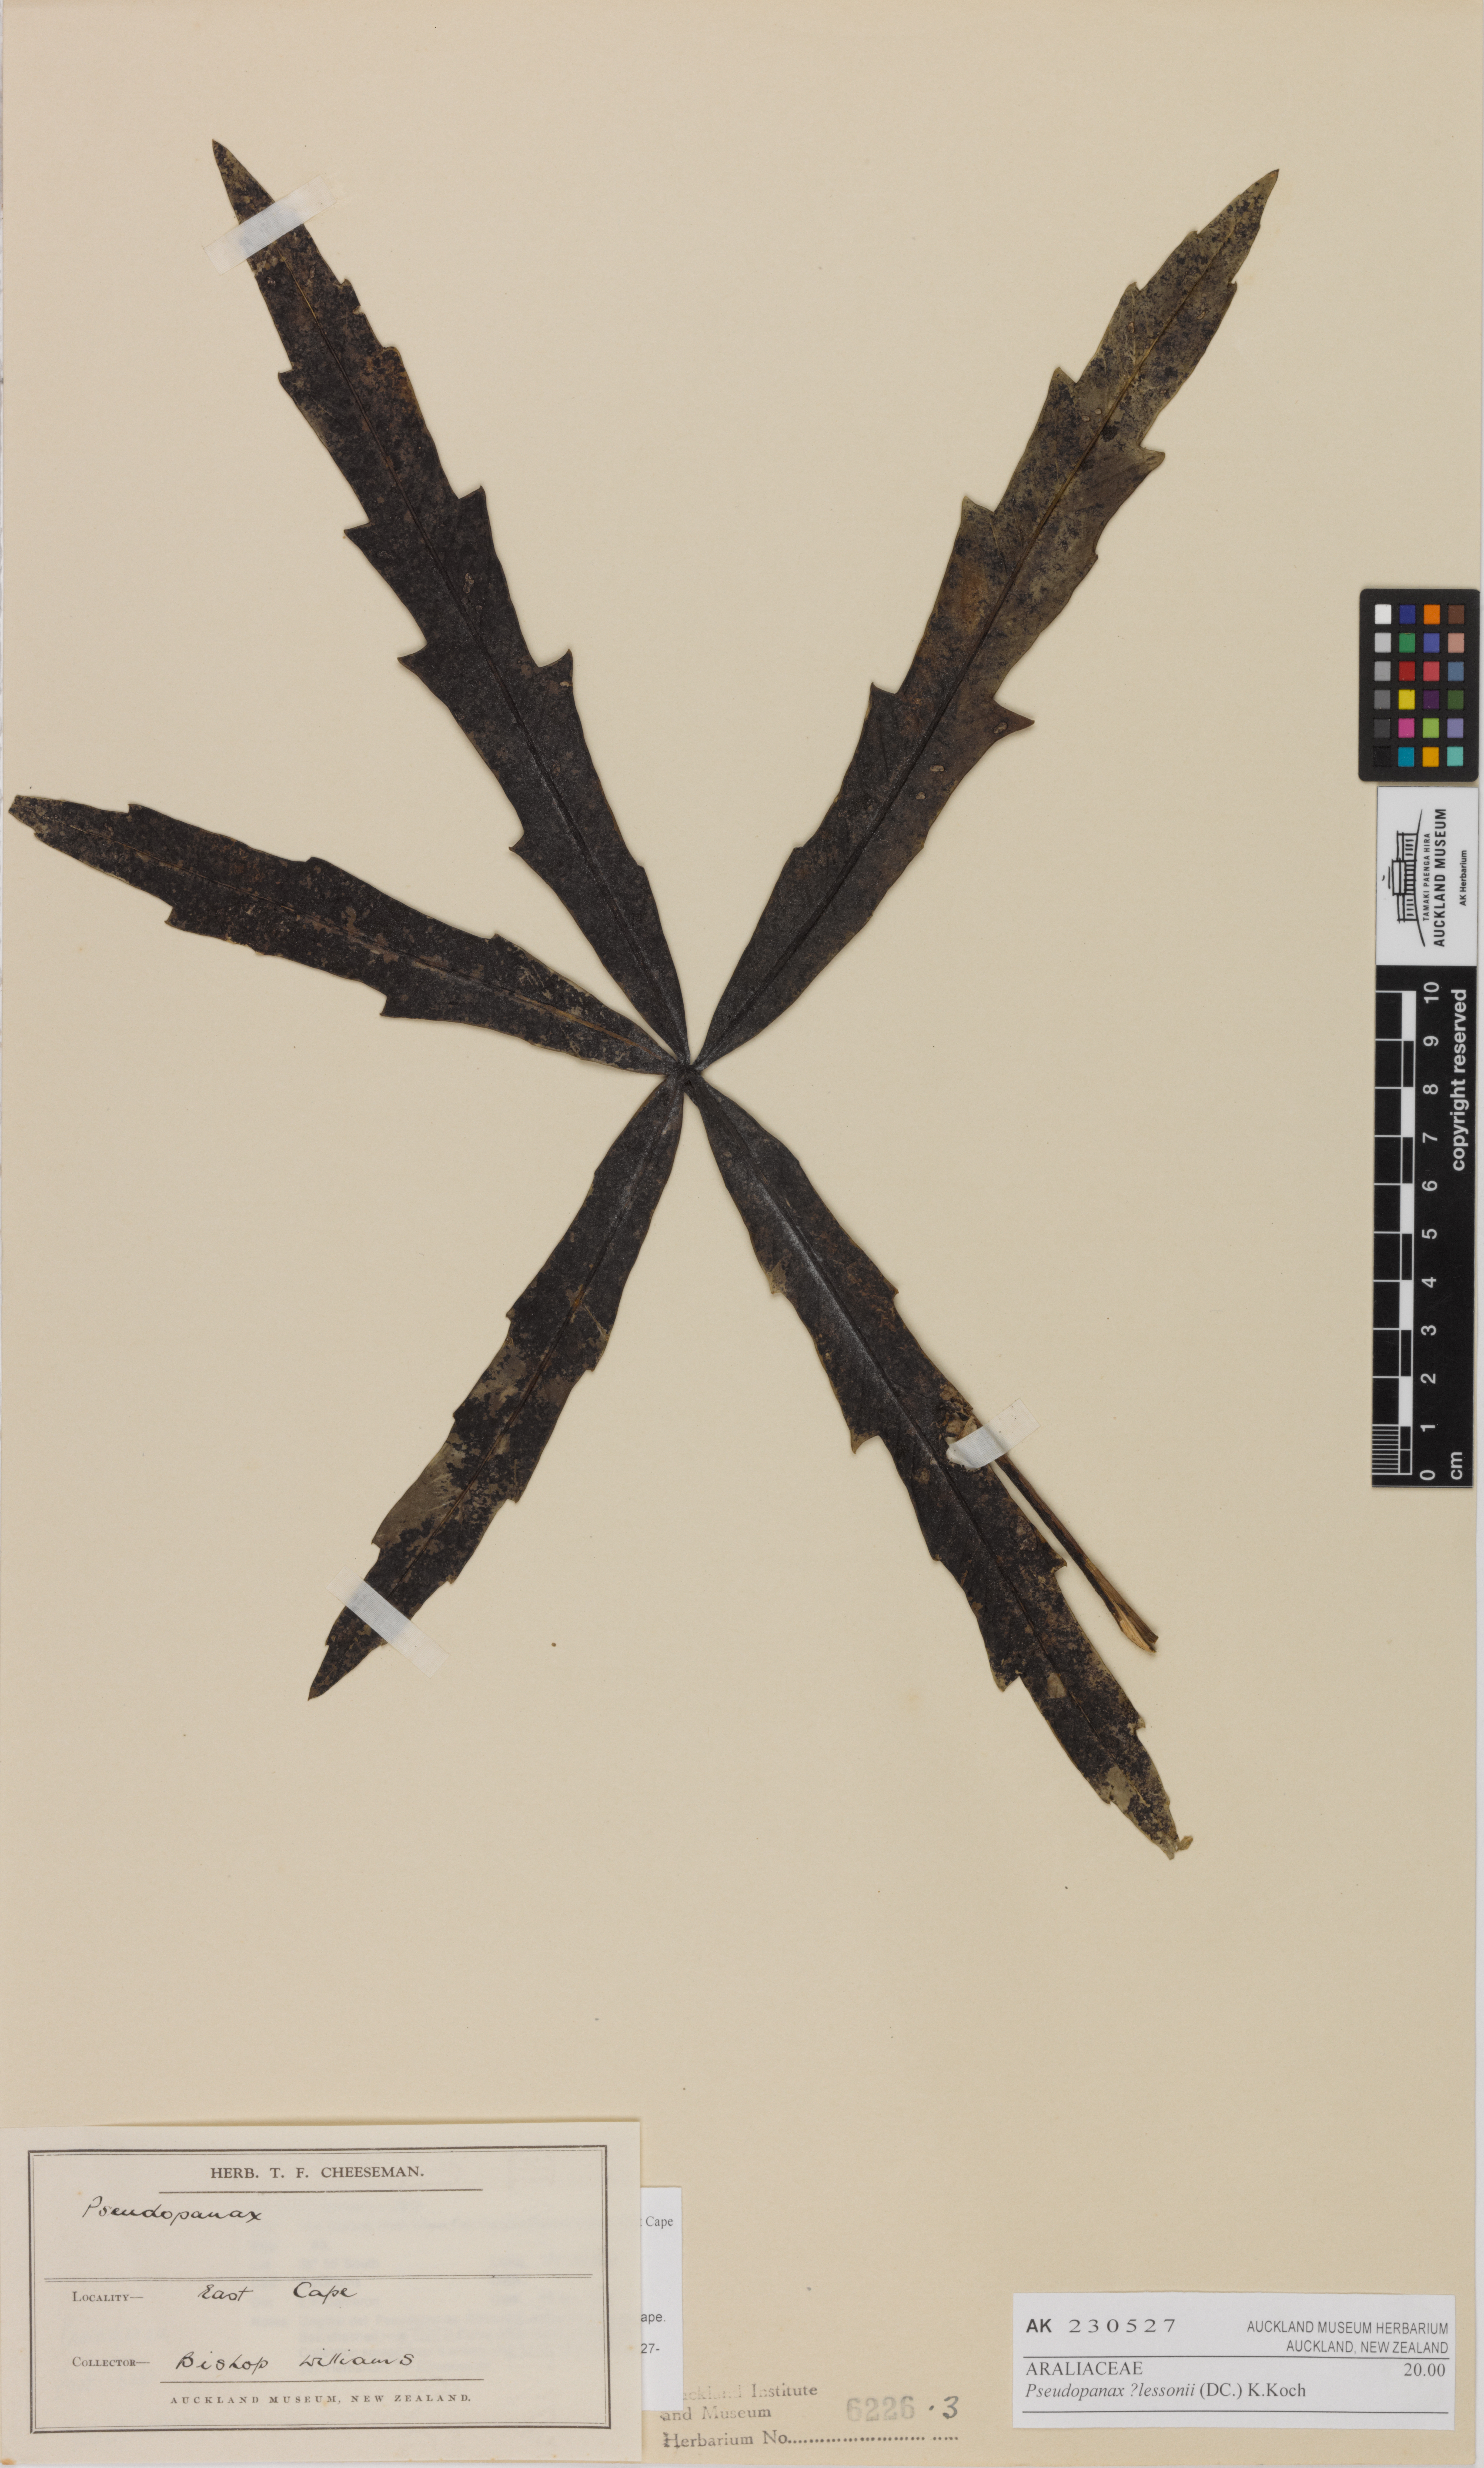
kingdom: Plantae
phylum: Tracheophyta
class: Magnoliopsida
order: Apiales
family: Araliaceae
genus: Pseudopanax
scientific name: Pseudopanax lessonii
